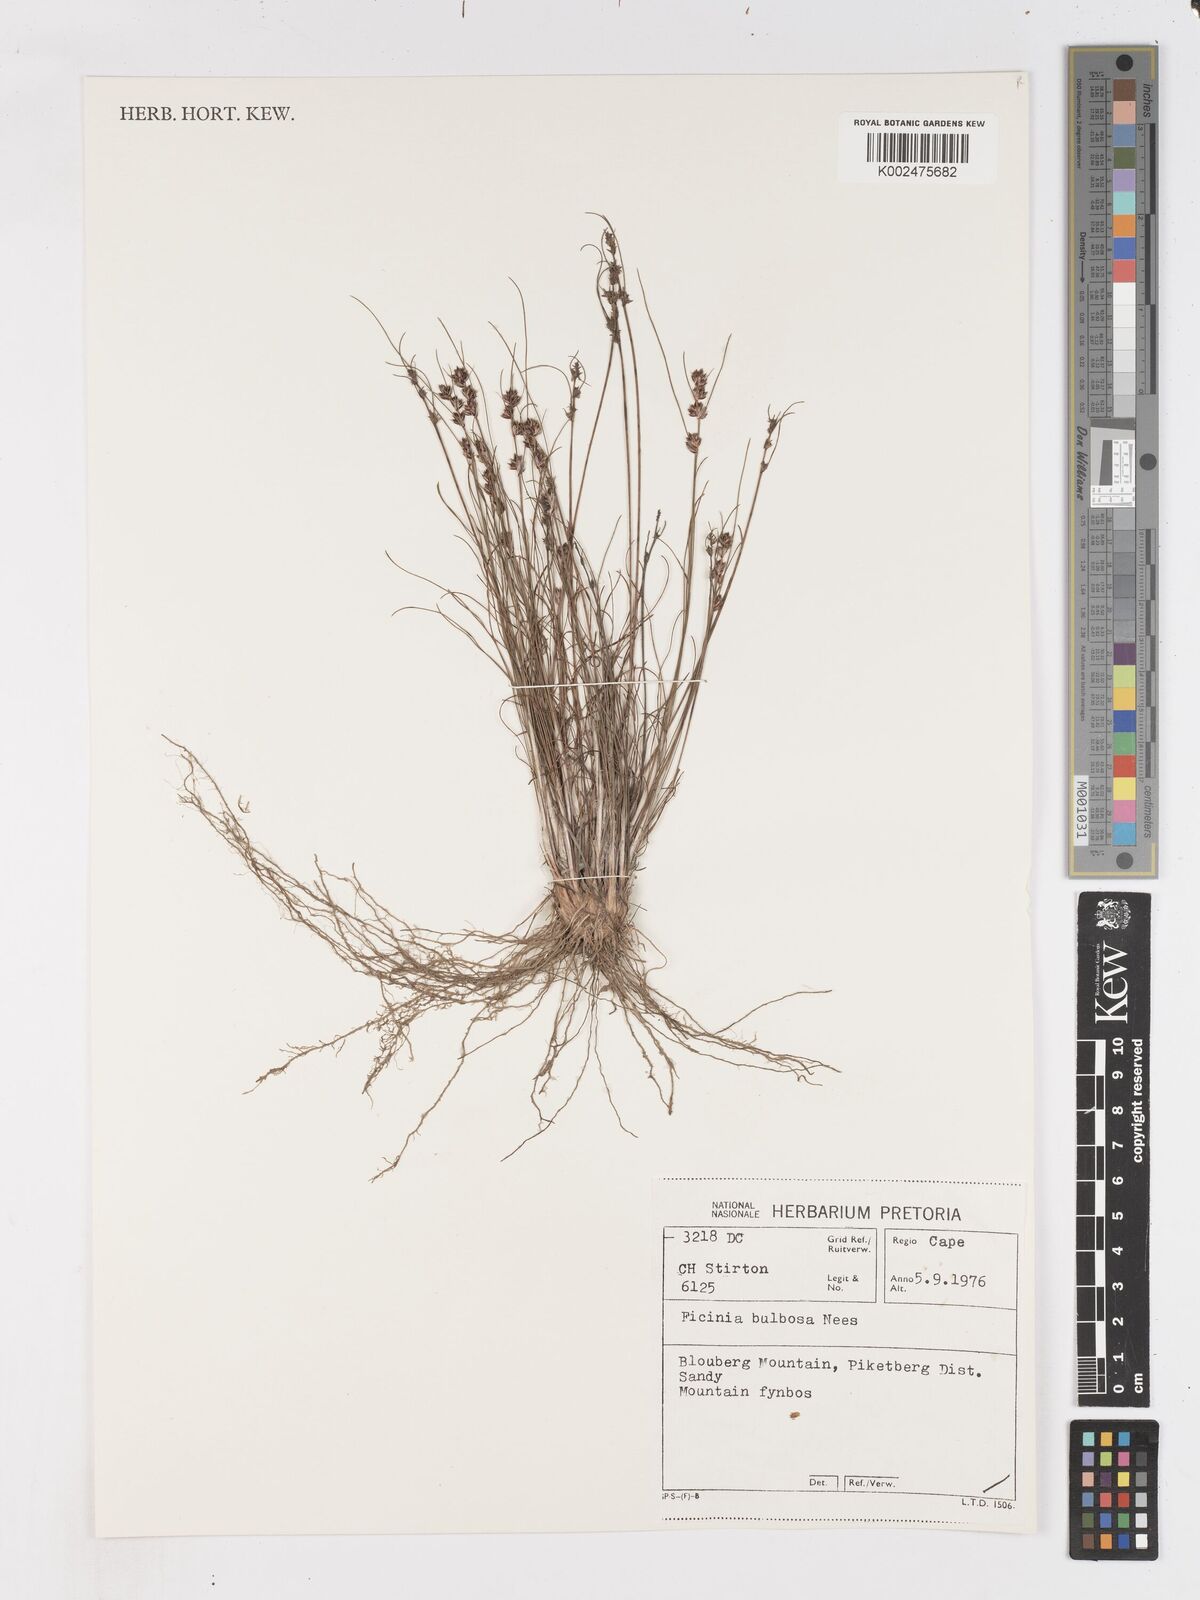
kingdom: Plantae
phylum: Tracheophyta
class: Liliopsida
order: Poales
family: Cyperaceae
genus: Ficinia
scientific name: Ficinia bulbosa
